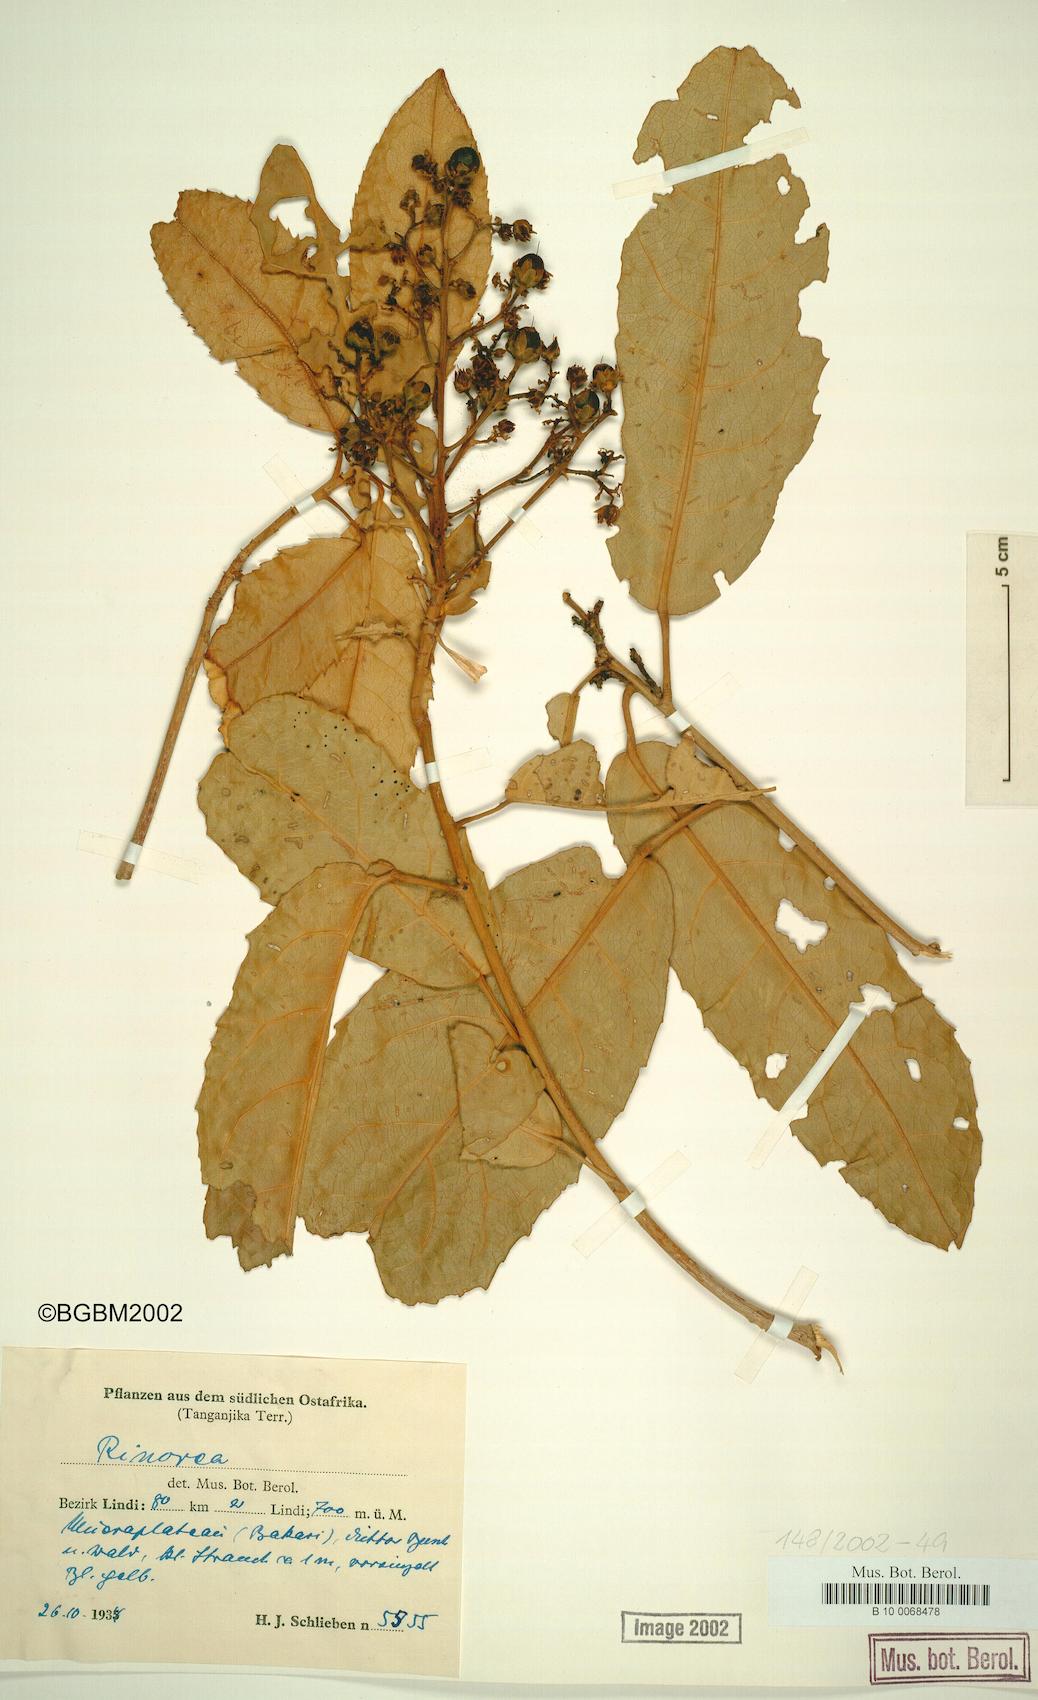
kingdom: Plantae
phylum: Tracheophyta
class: Magnoliopsida
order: Malpighiales
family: Violaceae
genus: Rinorea
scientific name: Rinorea
